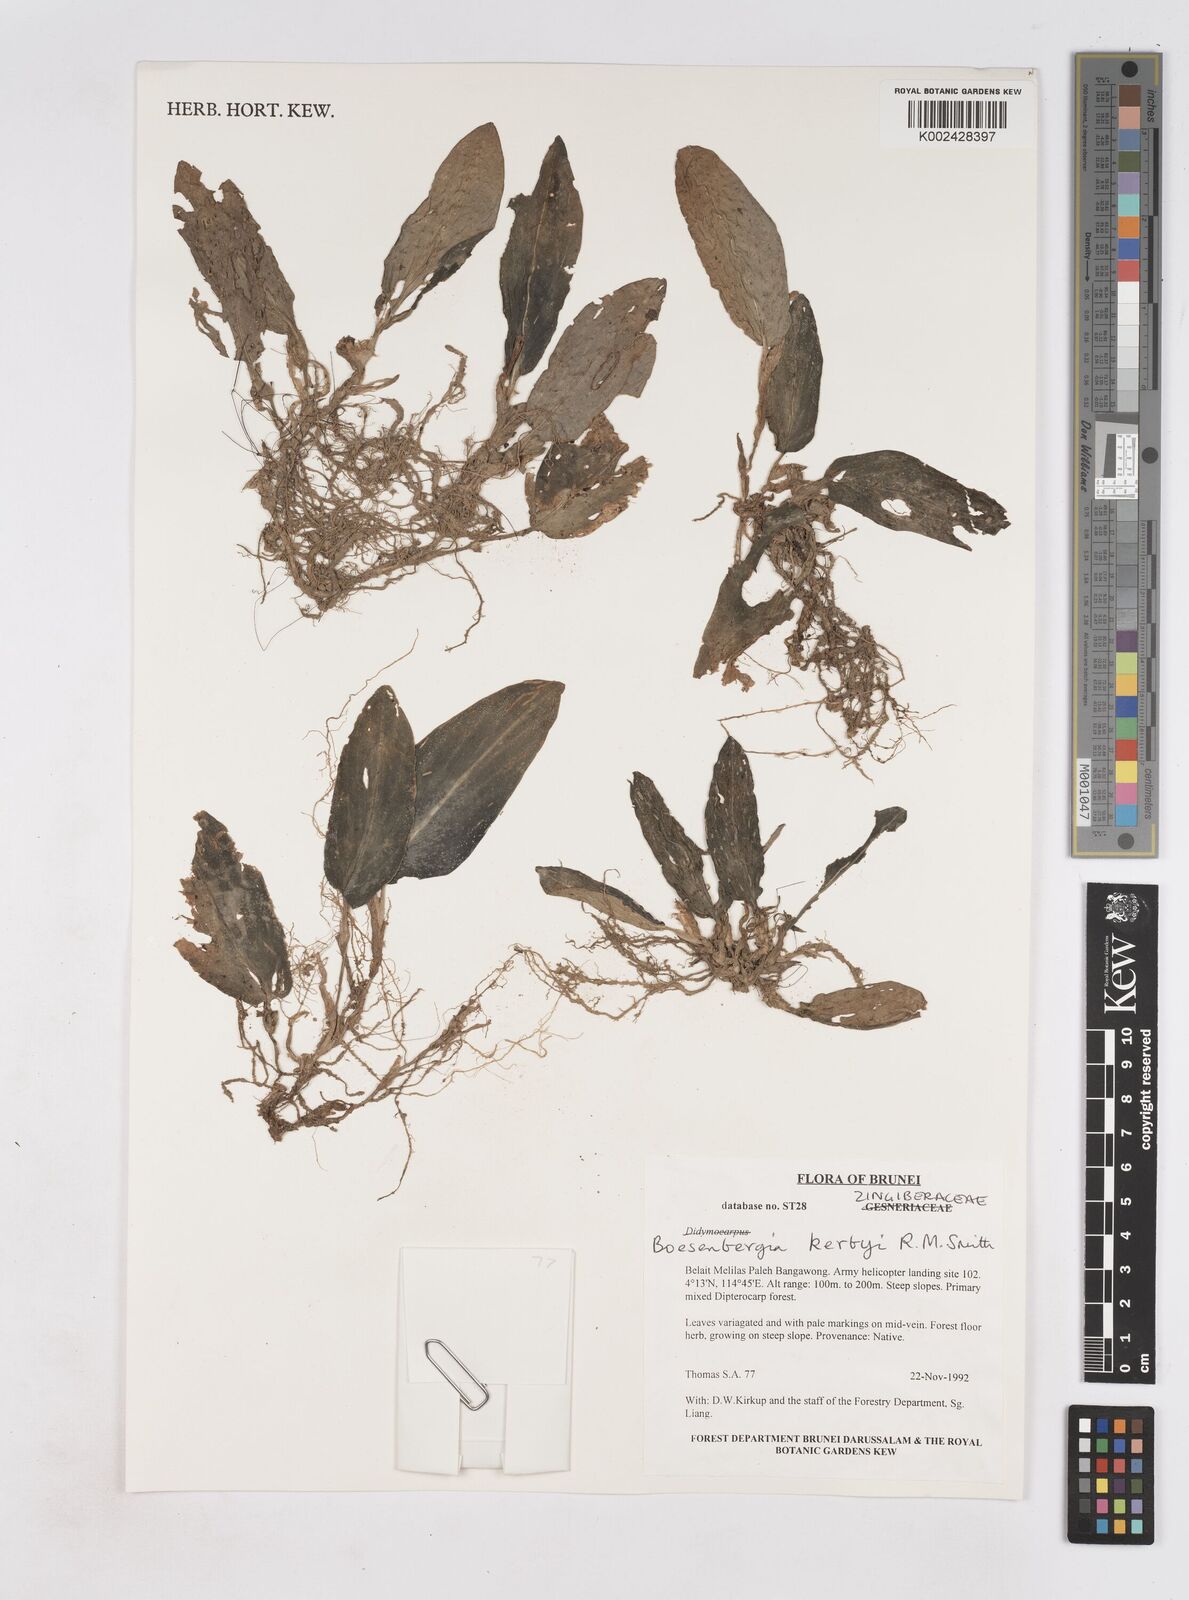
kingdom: Plantae
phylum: Tracheophyta
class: Liliopsida
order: Zingiberales
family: Zingiberaceae
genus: Boesenbergia
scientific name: Boesenbergia kerbyi
